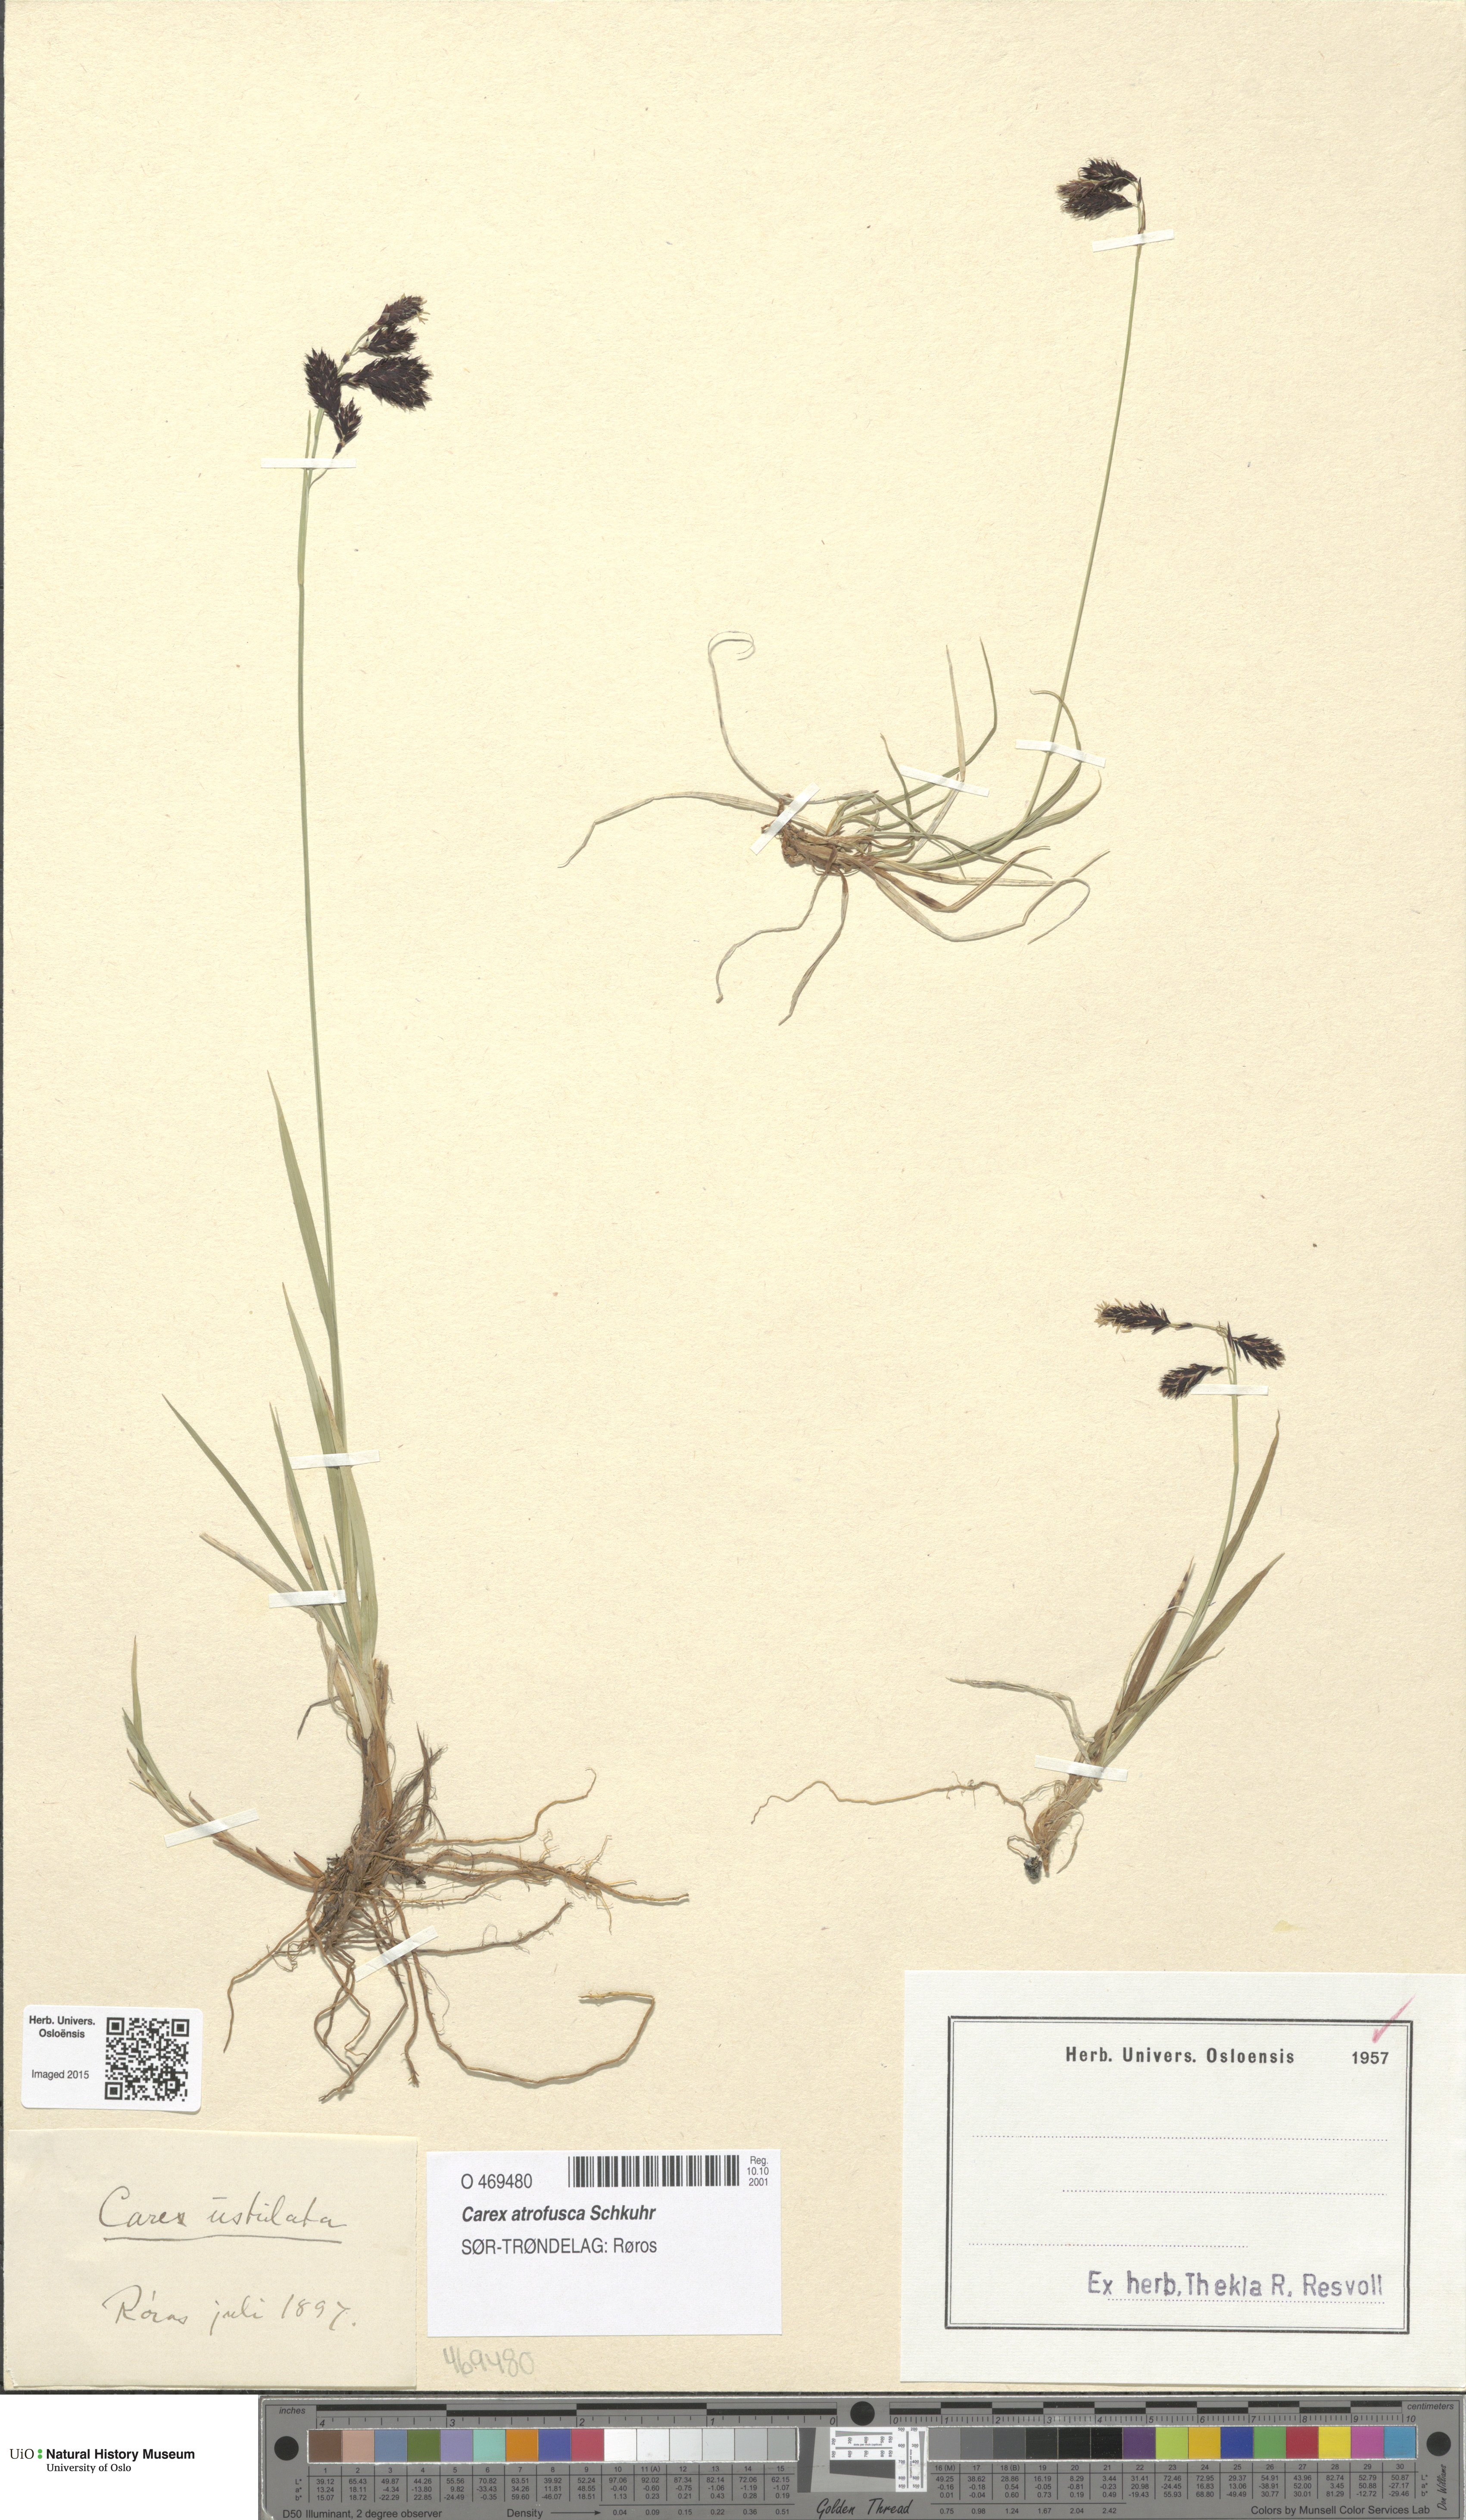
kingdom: Plantae
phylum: Tracheophyta
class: Liliopsida
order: Poales
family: Cyperaceae
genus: Carex
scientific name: Carex atrofusca
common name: Scorched alpine-sedge
